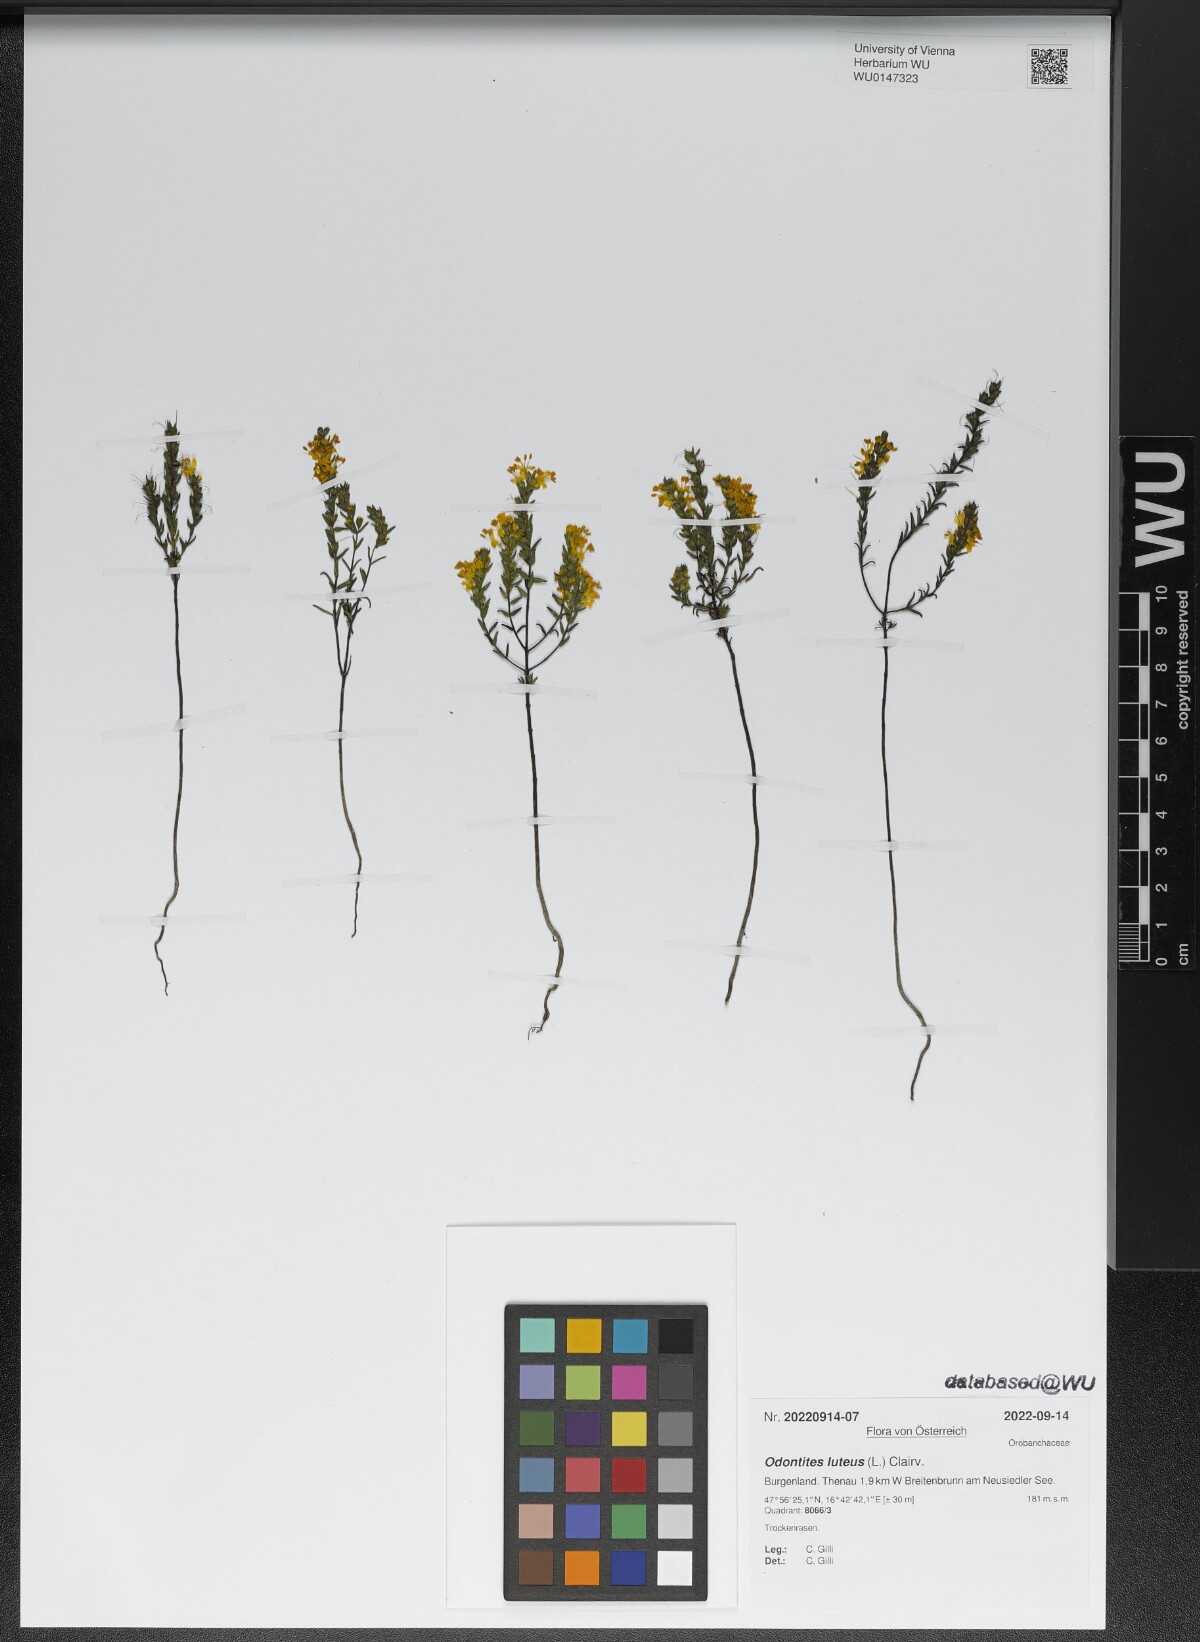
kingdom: Plantae
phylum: Tracheophyta
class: Magnoliopsida
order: Lamiales
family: Orobanchaceae
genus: Odontites
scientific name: Odontites luteus
